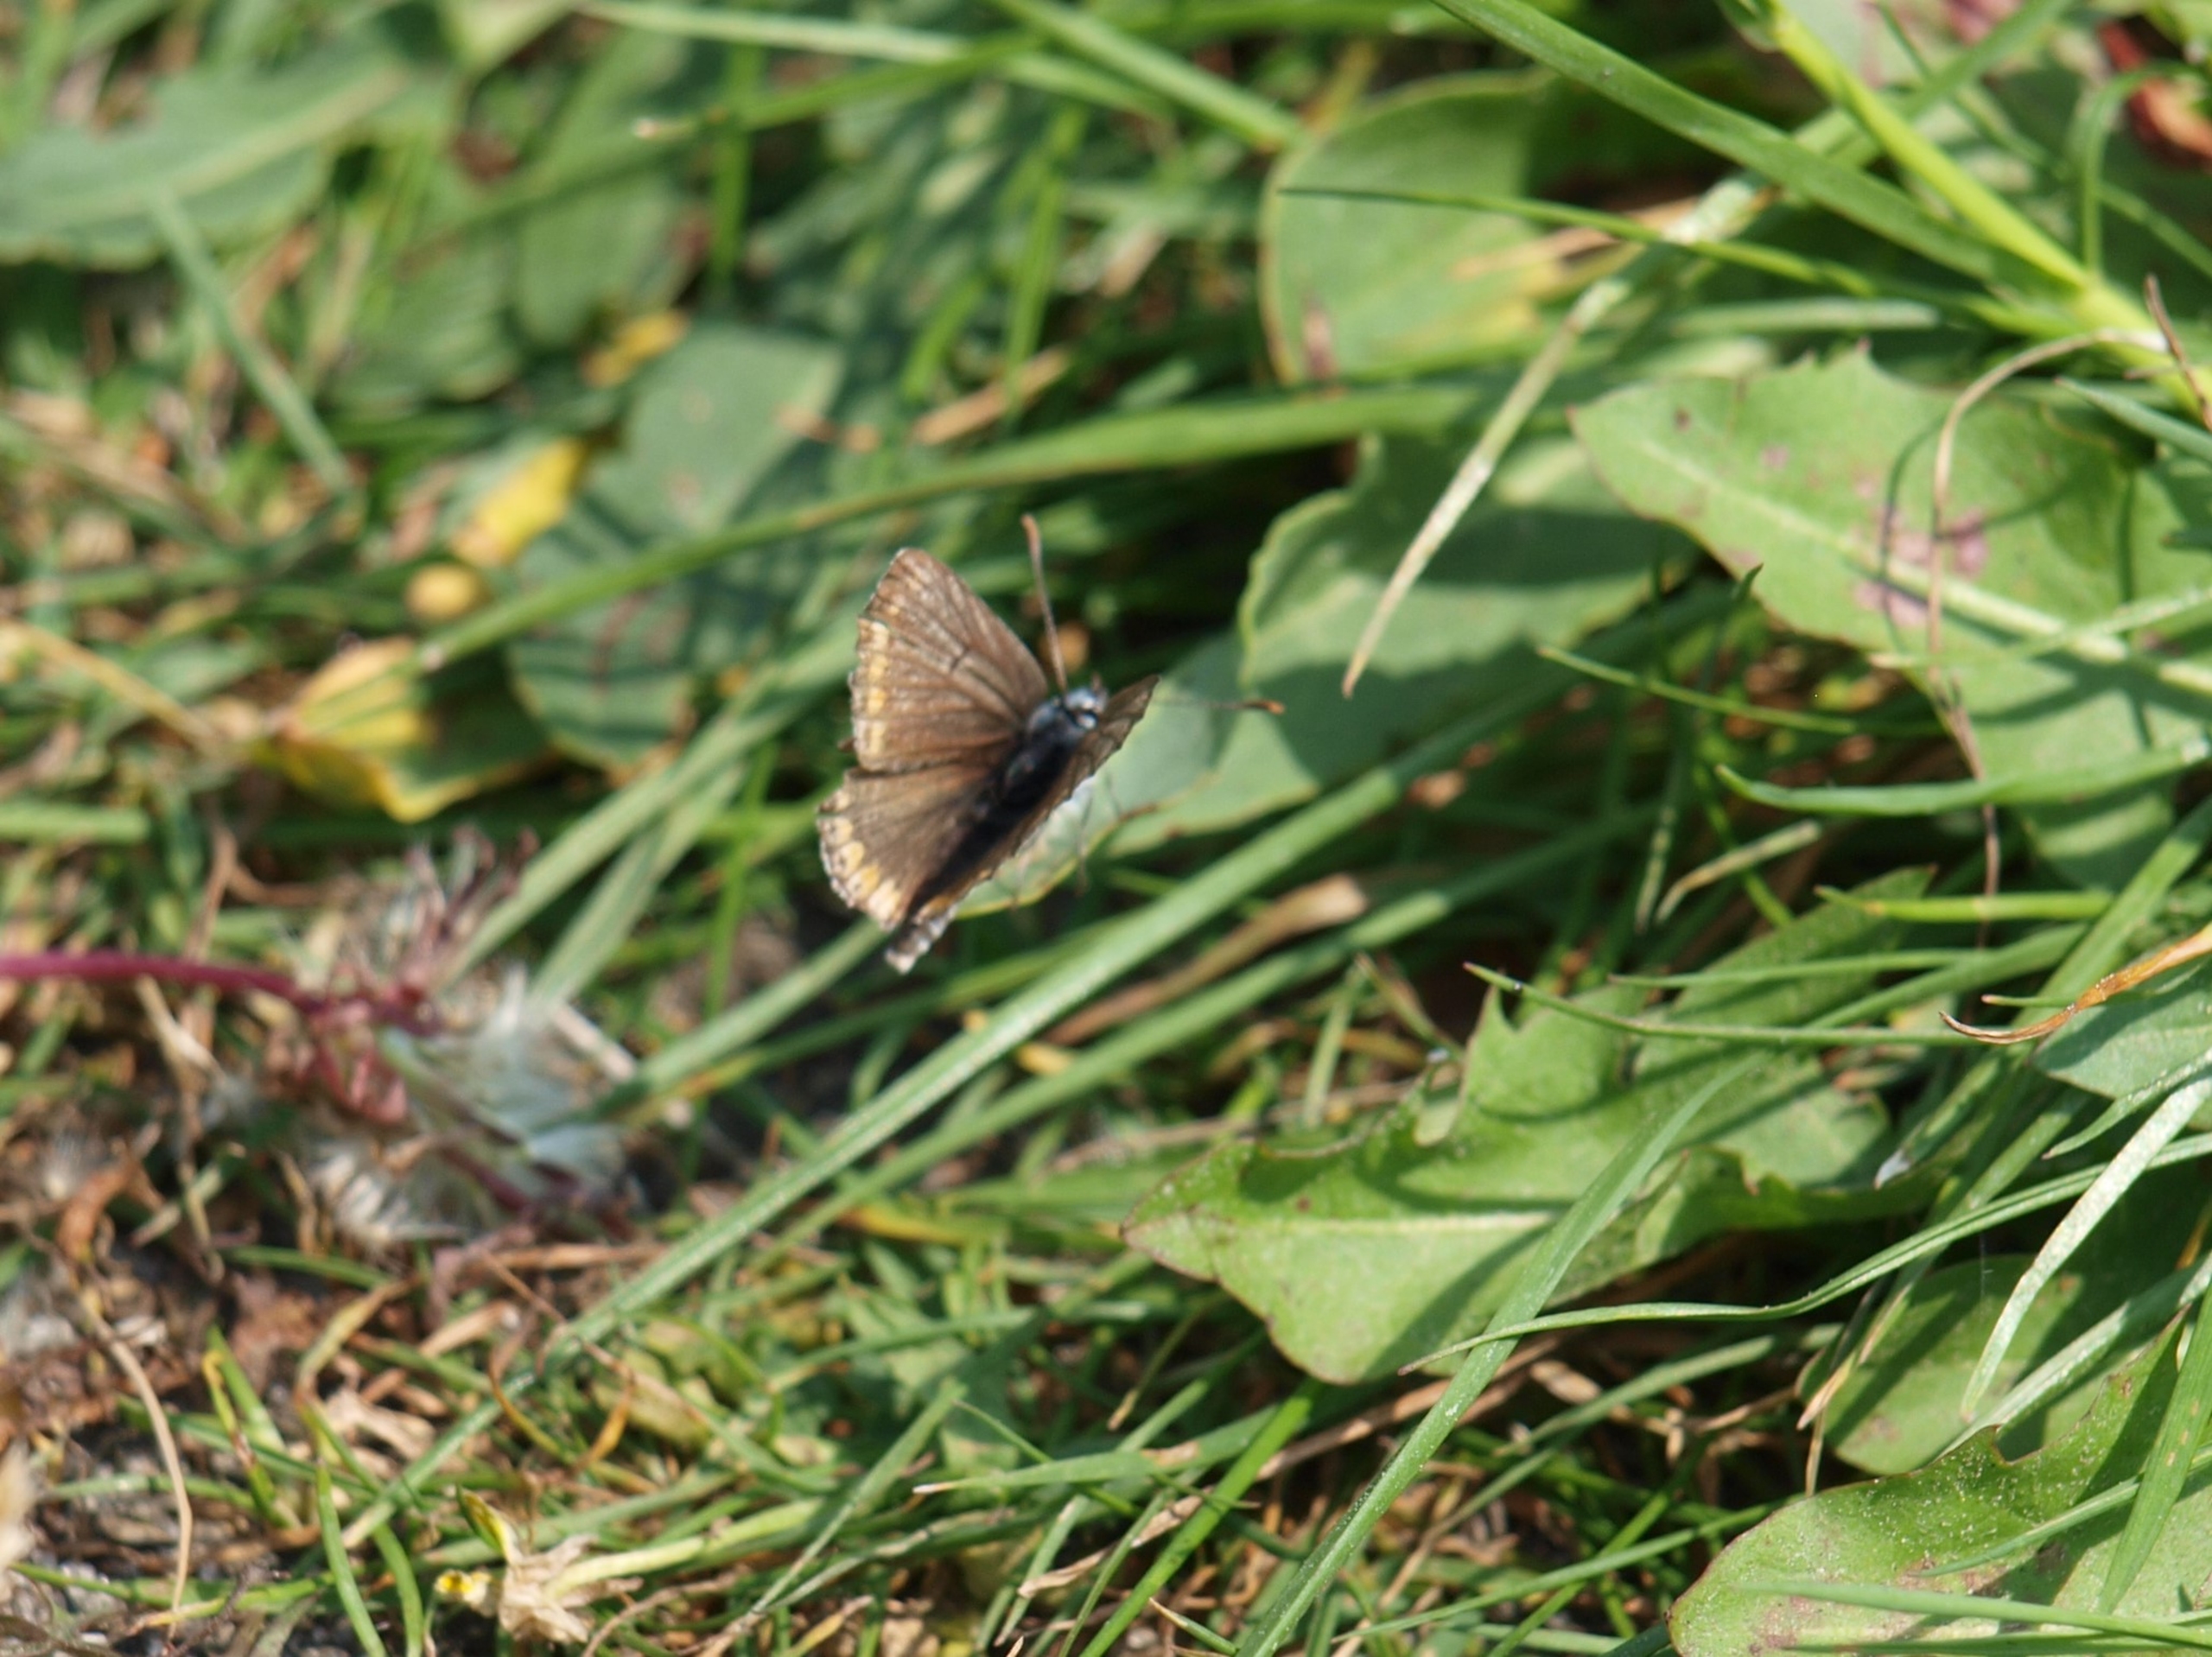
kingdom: Animalia
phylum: Arthropoda
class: Insecta
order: Lepidoptera
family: Lycaenidae
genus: Aricia
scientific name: Aricia agestis
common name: Rødplettet blåfugl
